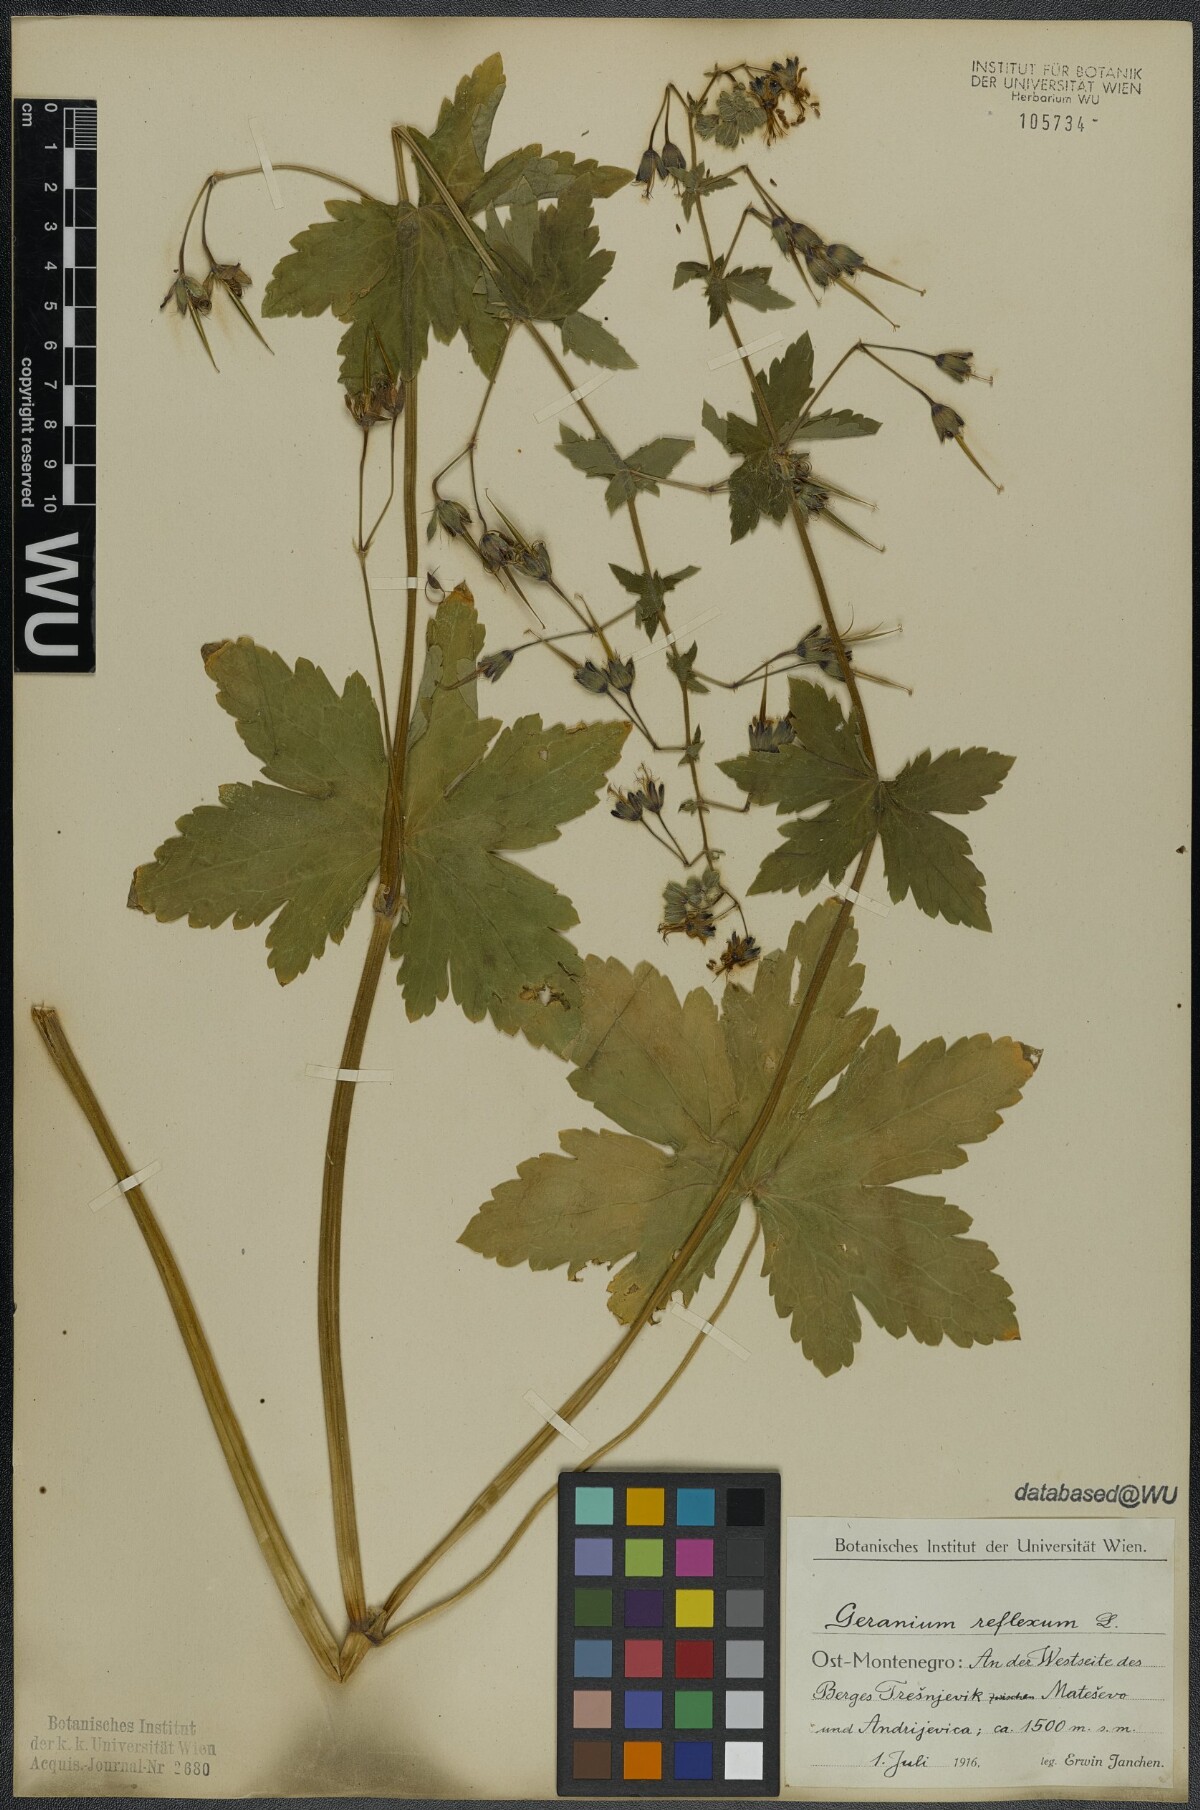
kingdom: Plantae
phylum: Tracheophyta
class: Magnoliopsida
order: Geraniales
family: Geraniaceae
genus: Geranium
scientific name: Geranium reflexum
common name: Reflexed crane's-bill
